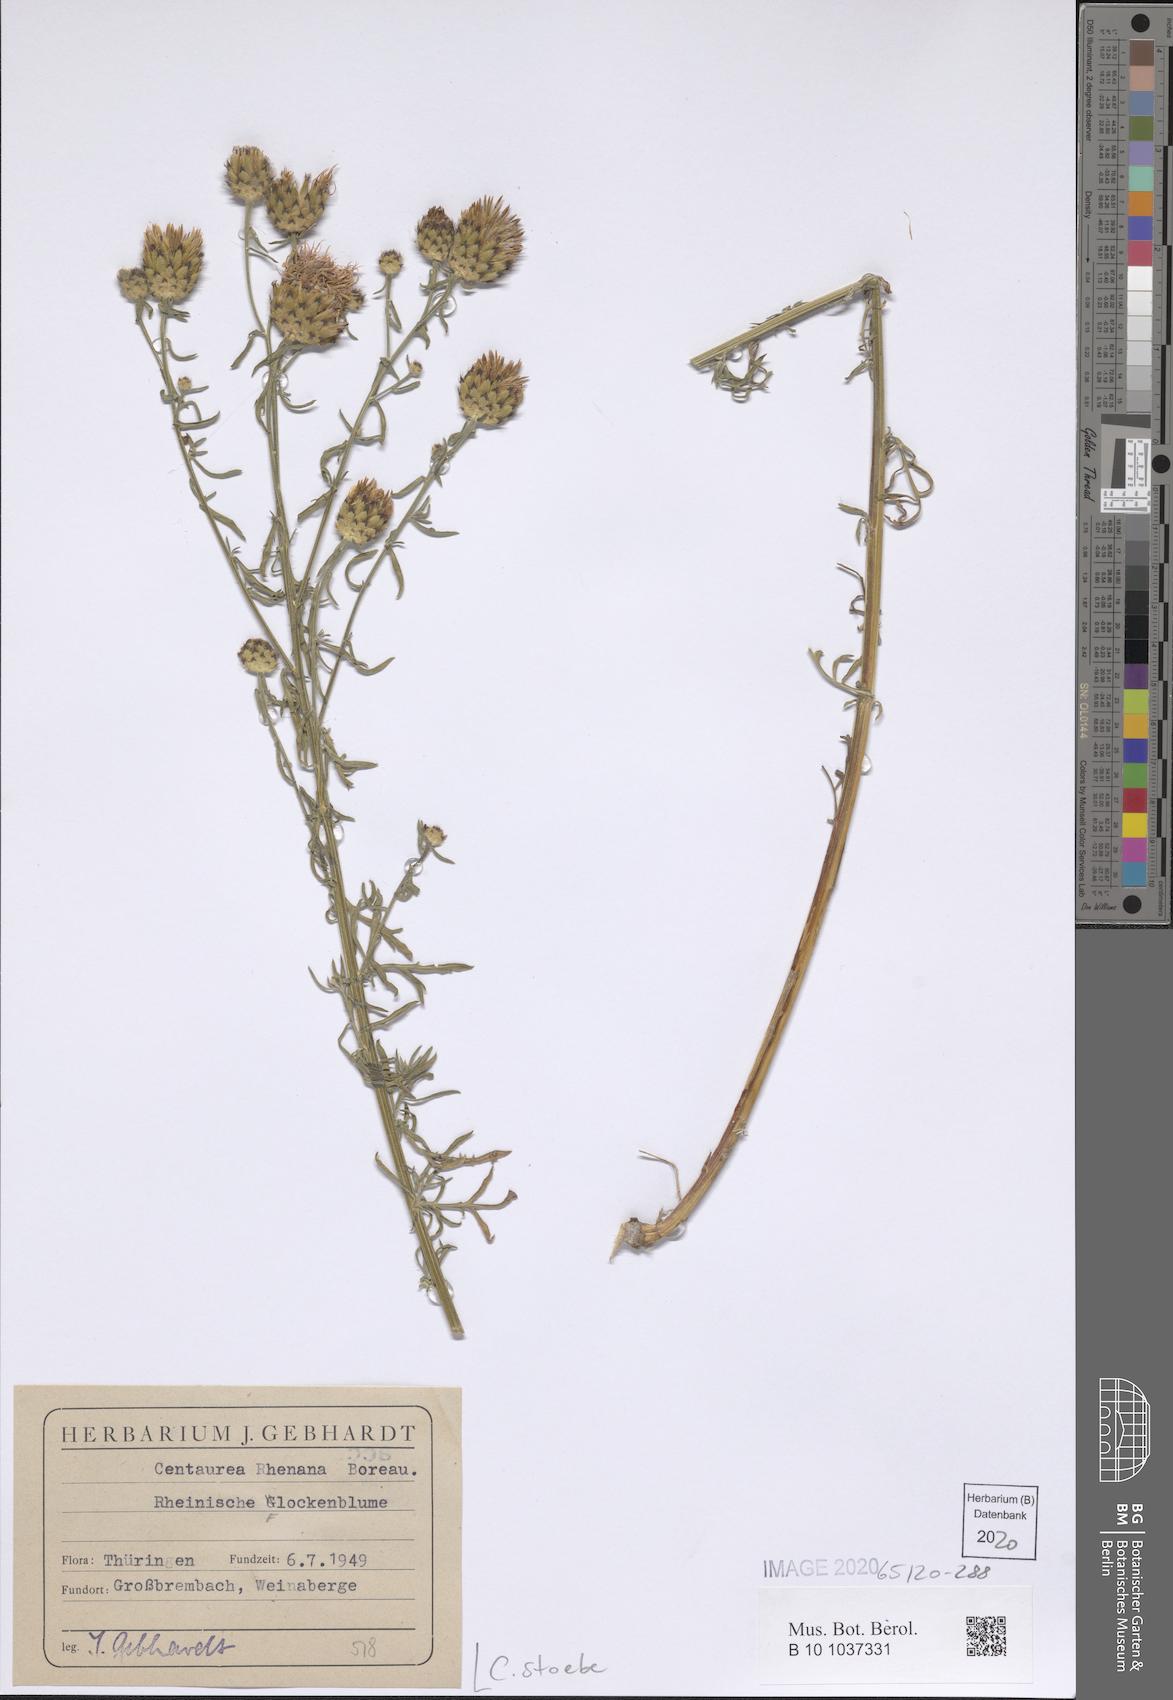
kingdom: Plantae
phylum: Tracheophyta
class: Magnoliopsida
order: Asterales
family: Asteraceae
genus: Centaurea
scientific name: Centaurea stoebe
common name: Spotted knapweed
